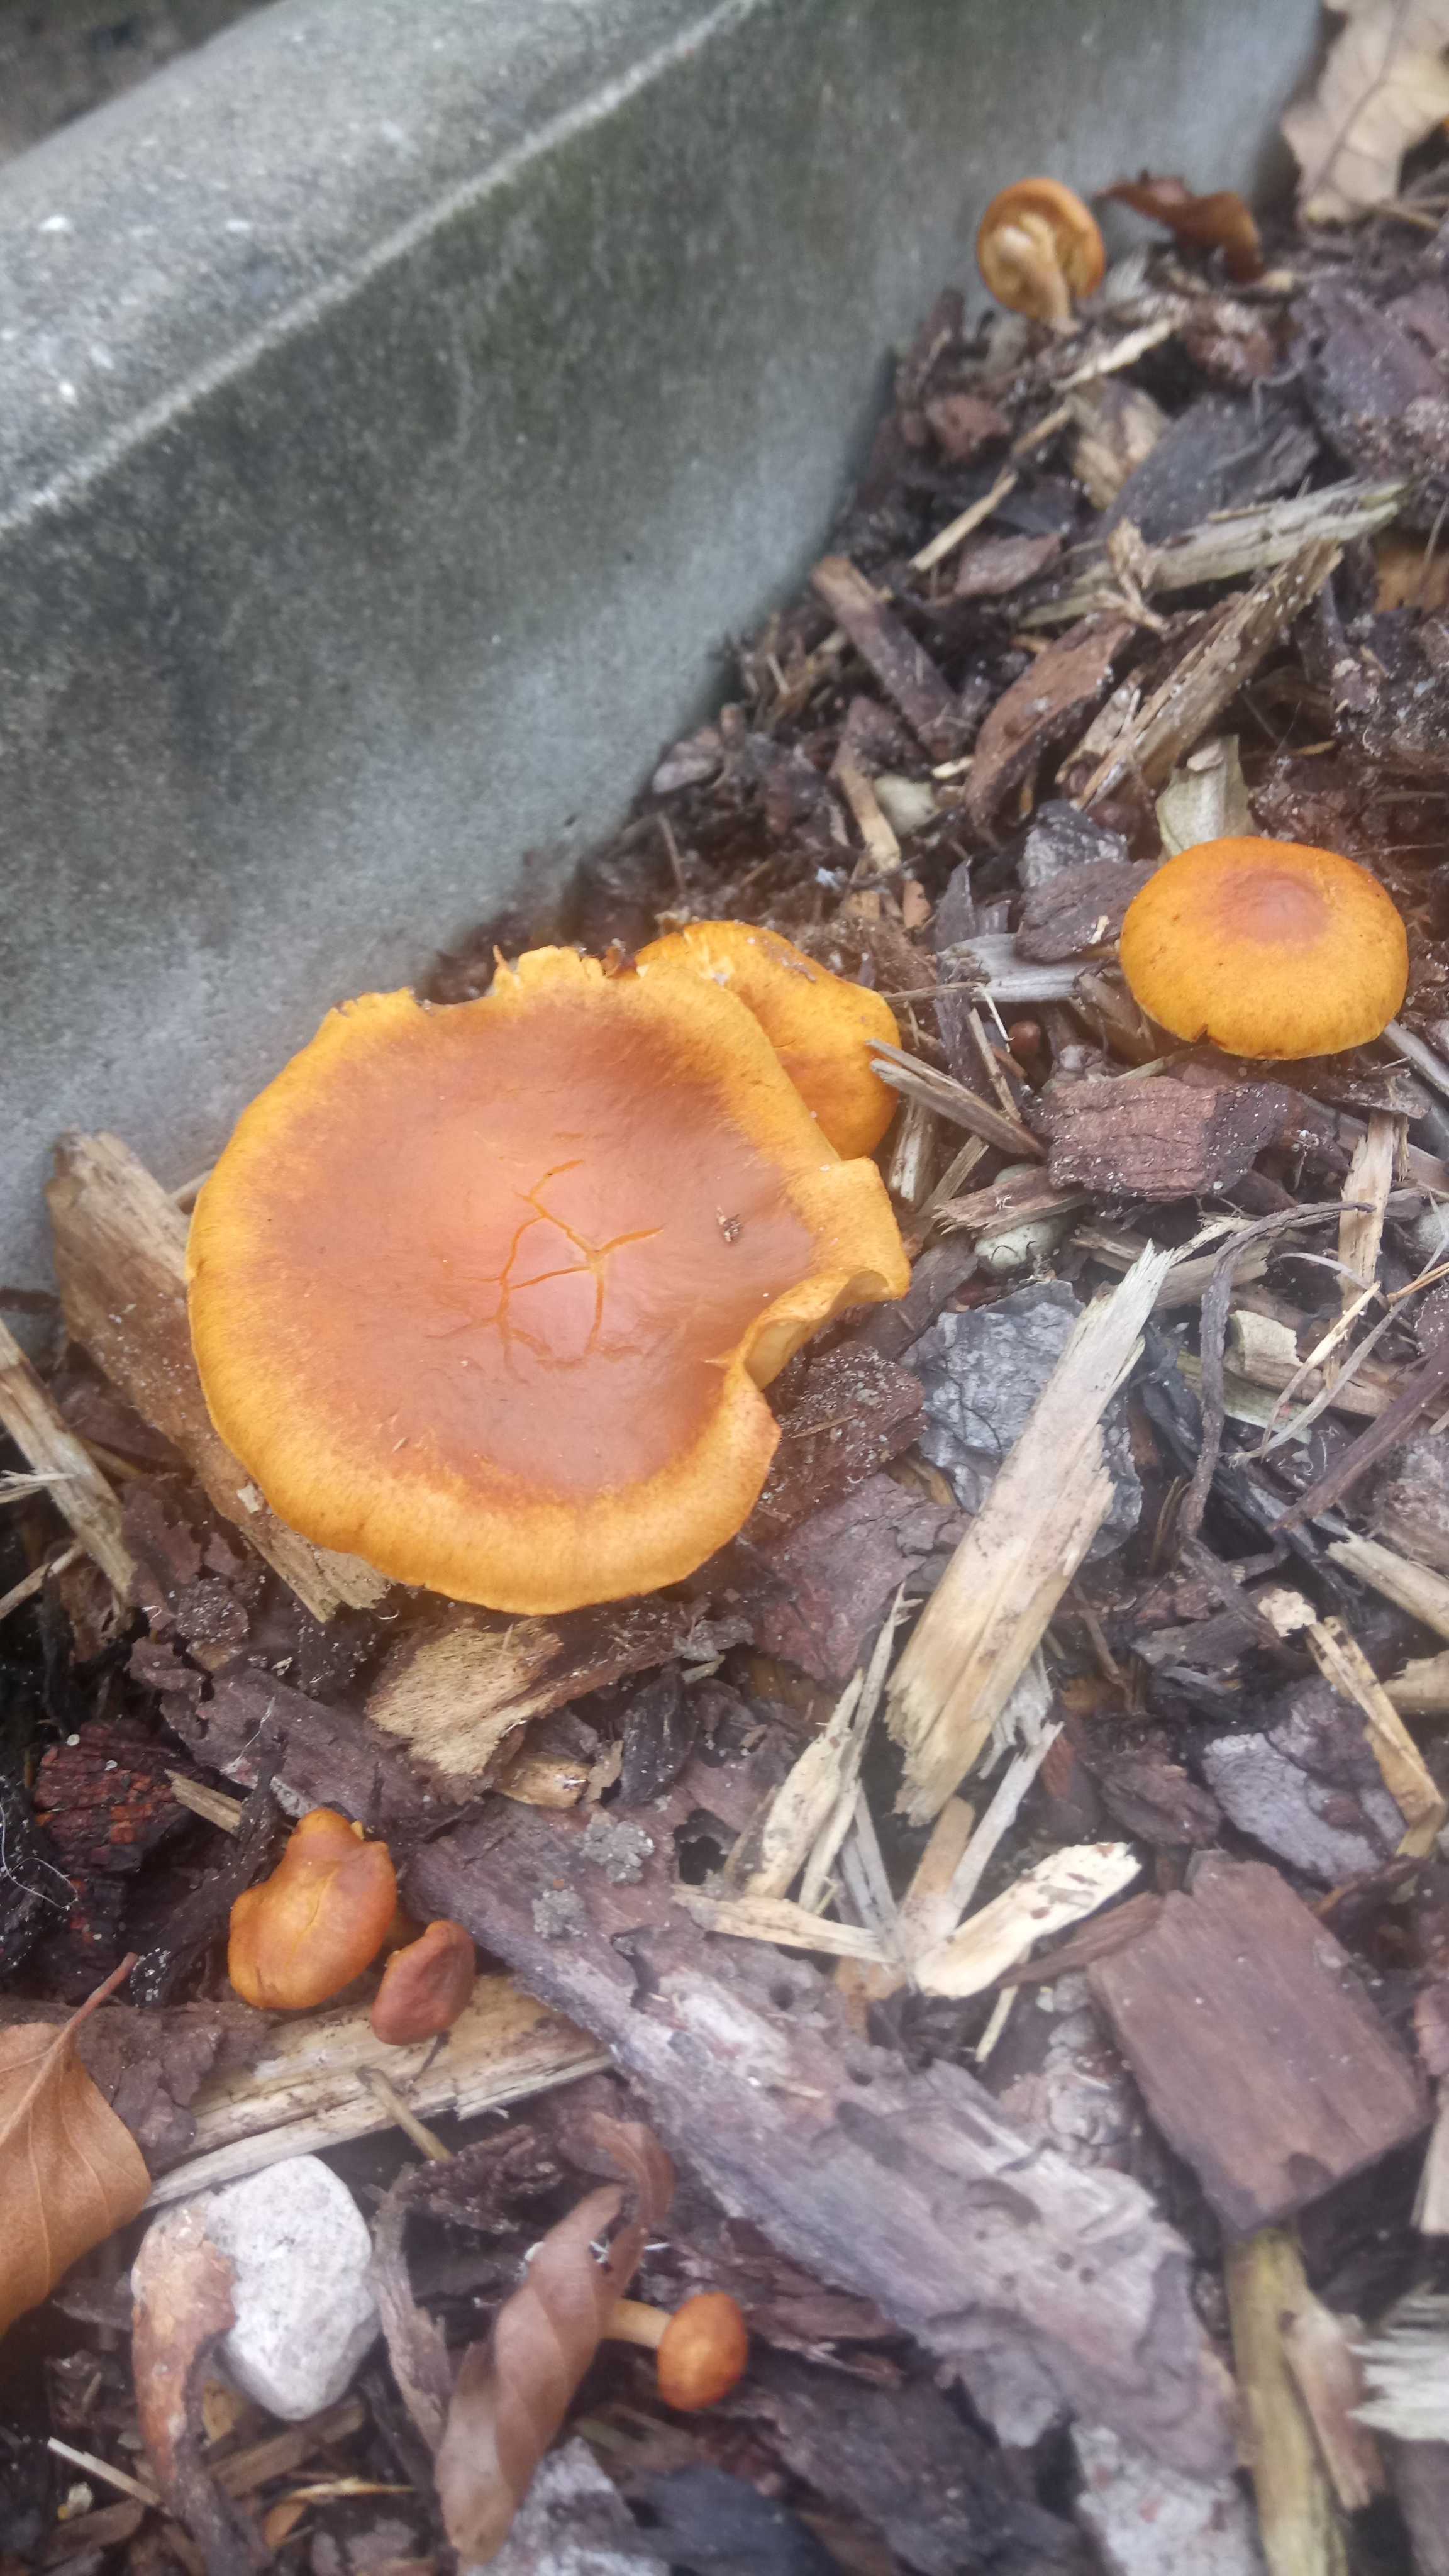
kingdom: Fungi
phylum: Basidiomycota
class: Agaricomycetes
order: Agaricales
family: Hymenogastraceae
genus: Gymnopilus
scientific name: Gymnopilus penetrans
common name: plettet flammehat
